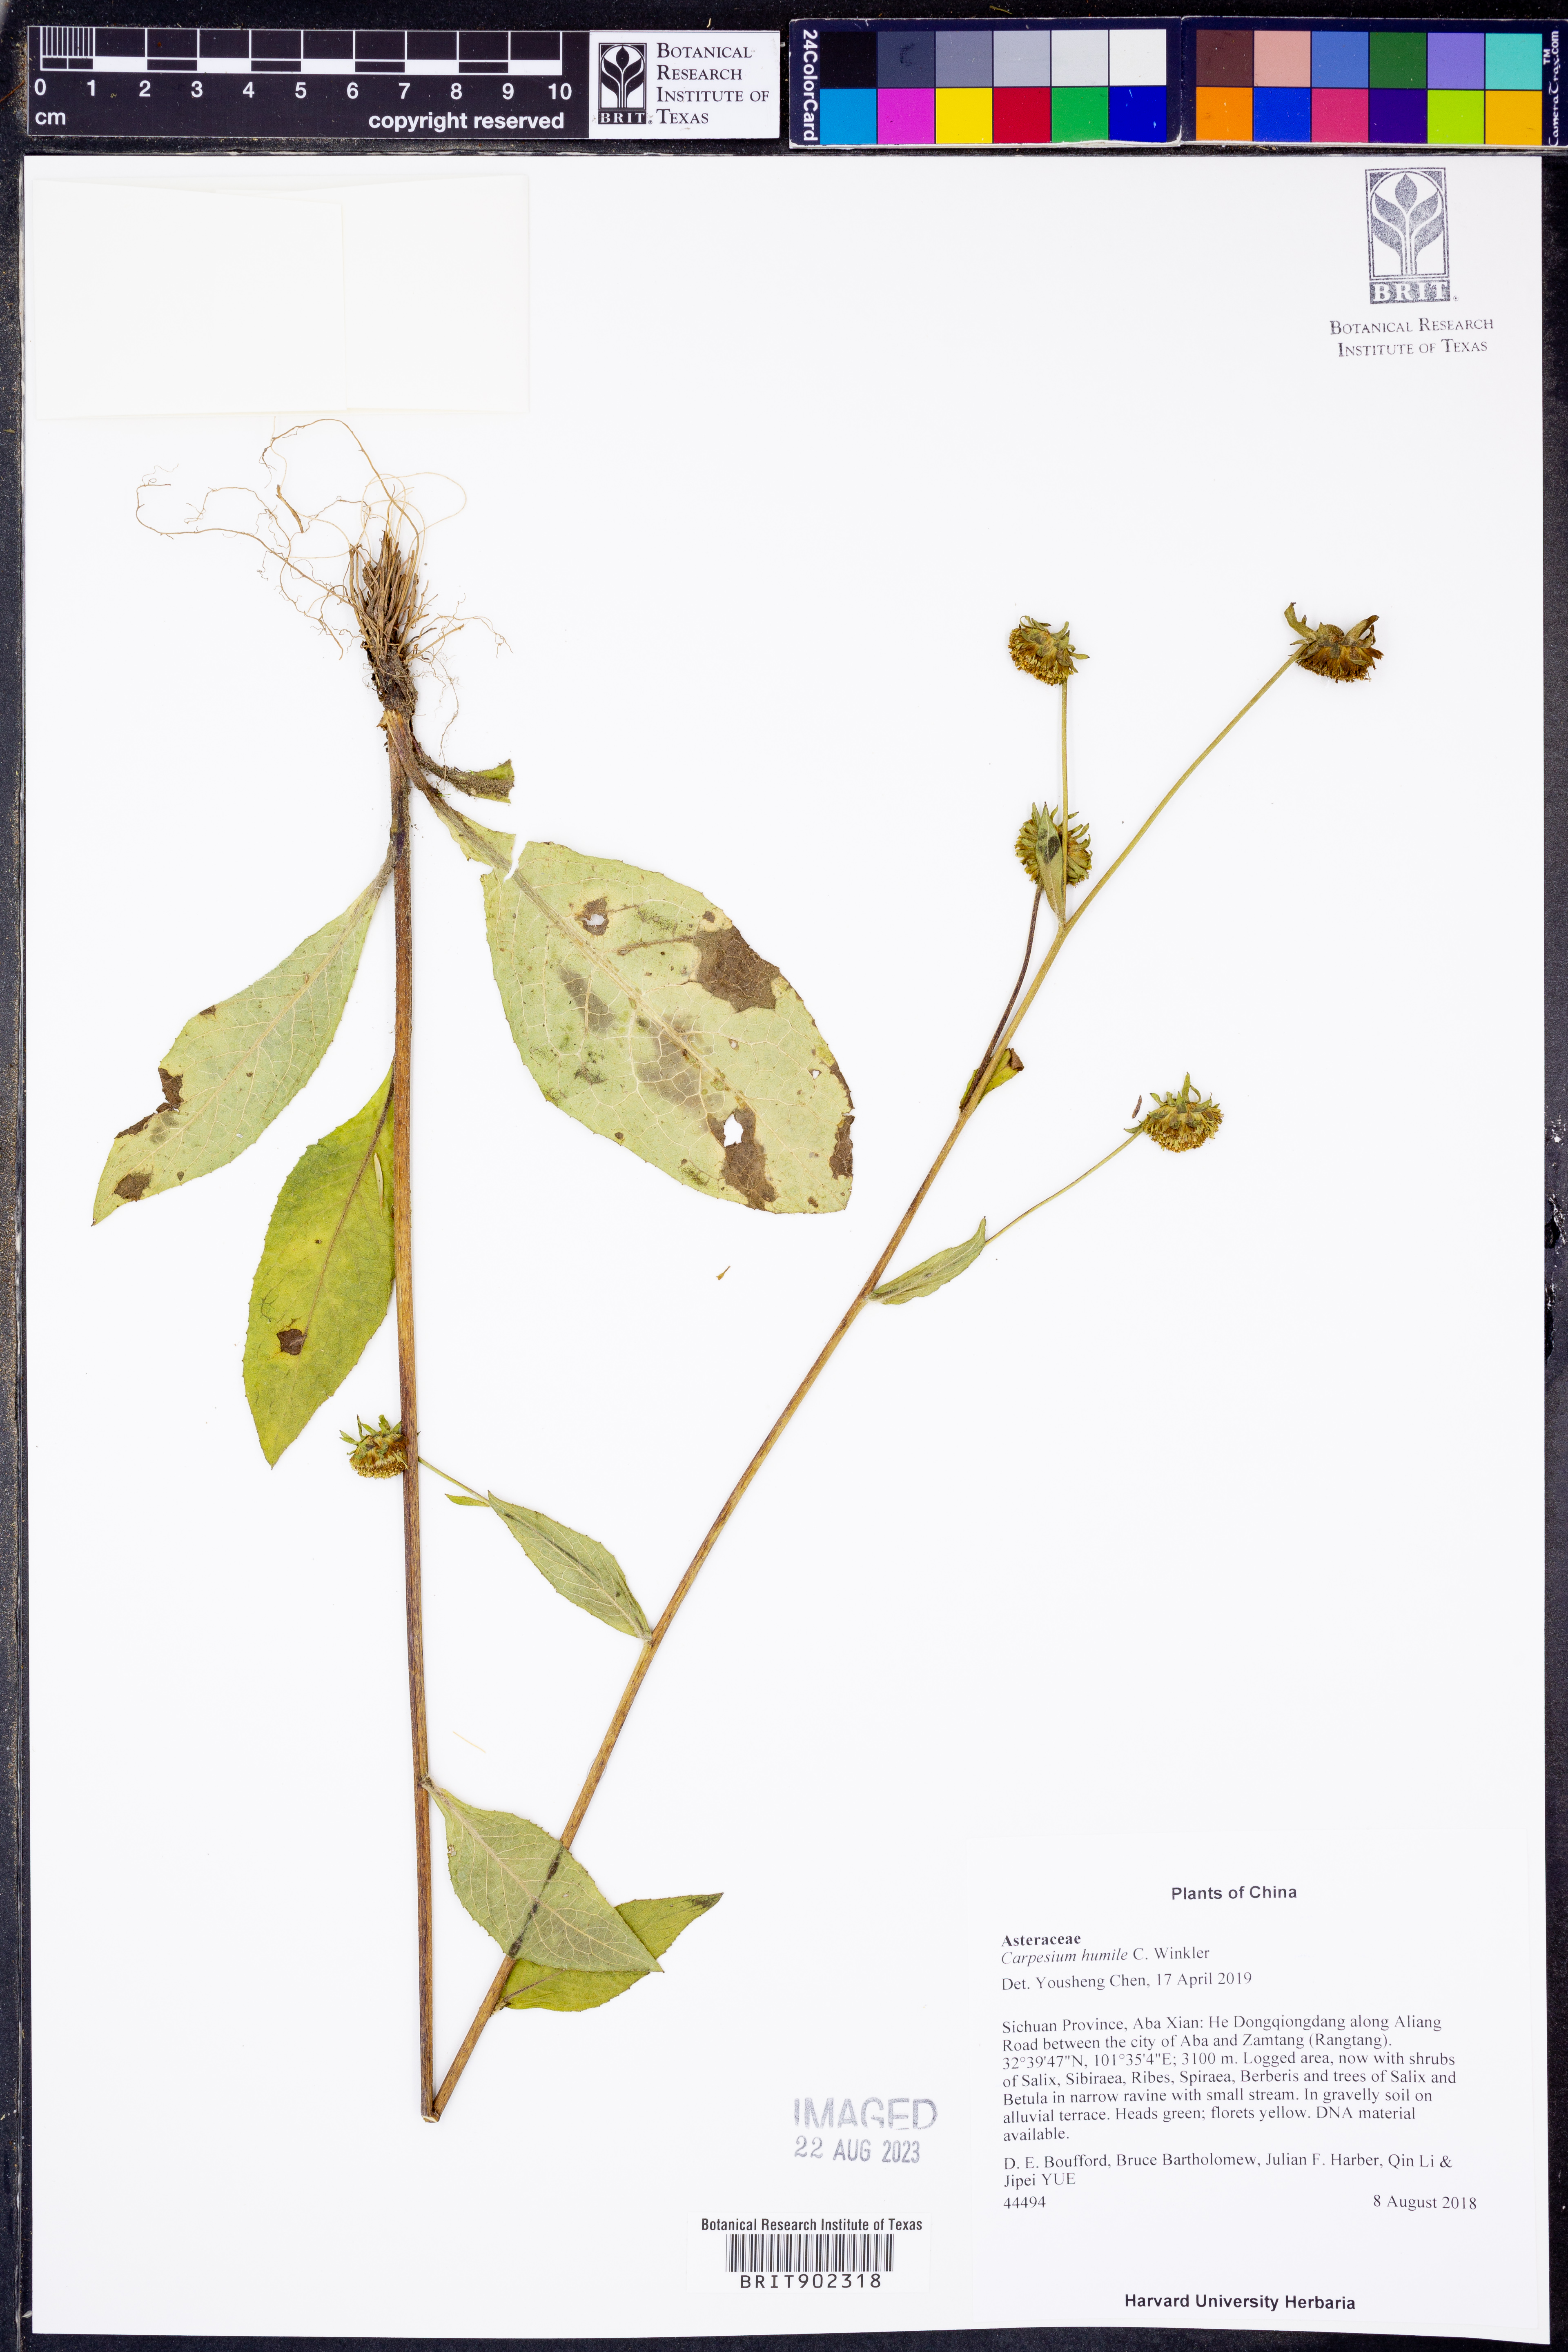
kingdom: Plantae
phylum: Tracheophyta
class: Magnoliopsida
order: Asterales
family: Asteraceae
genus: Carpesium
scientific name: Carpesium humile
